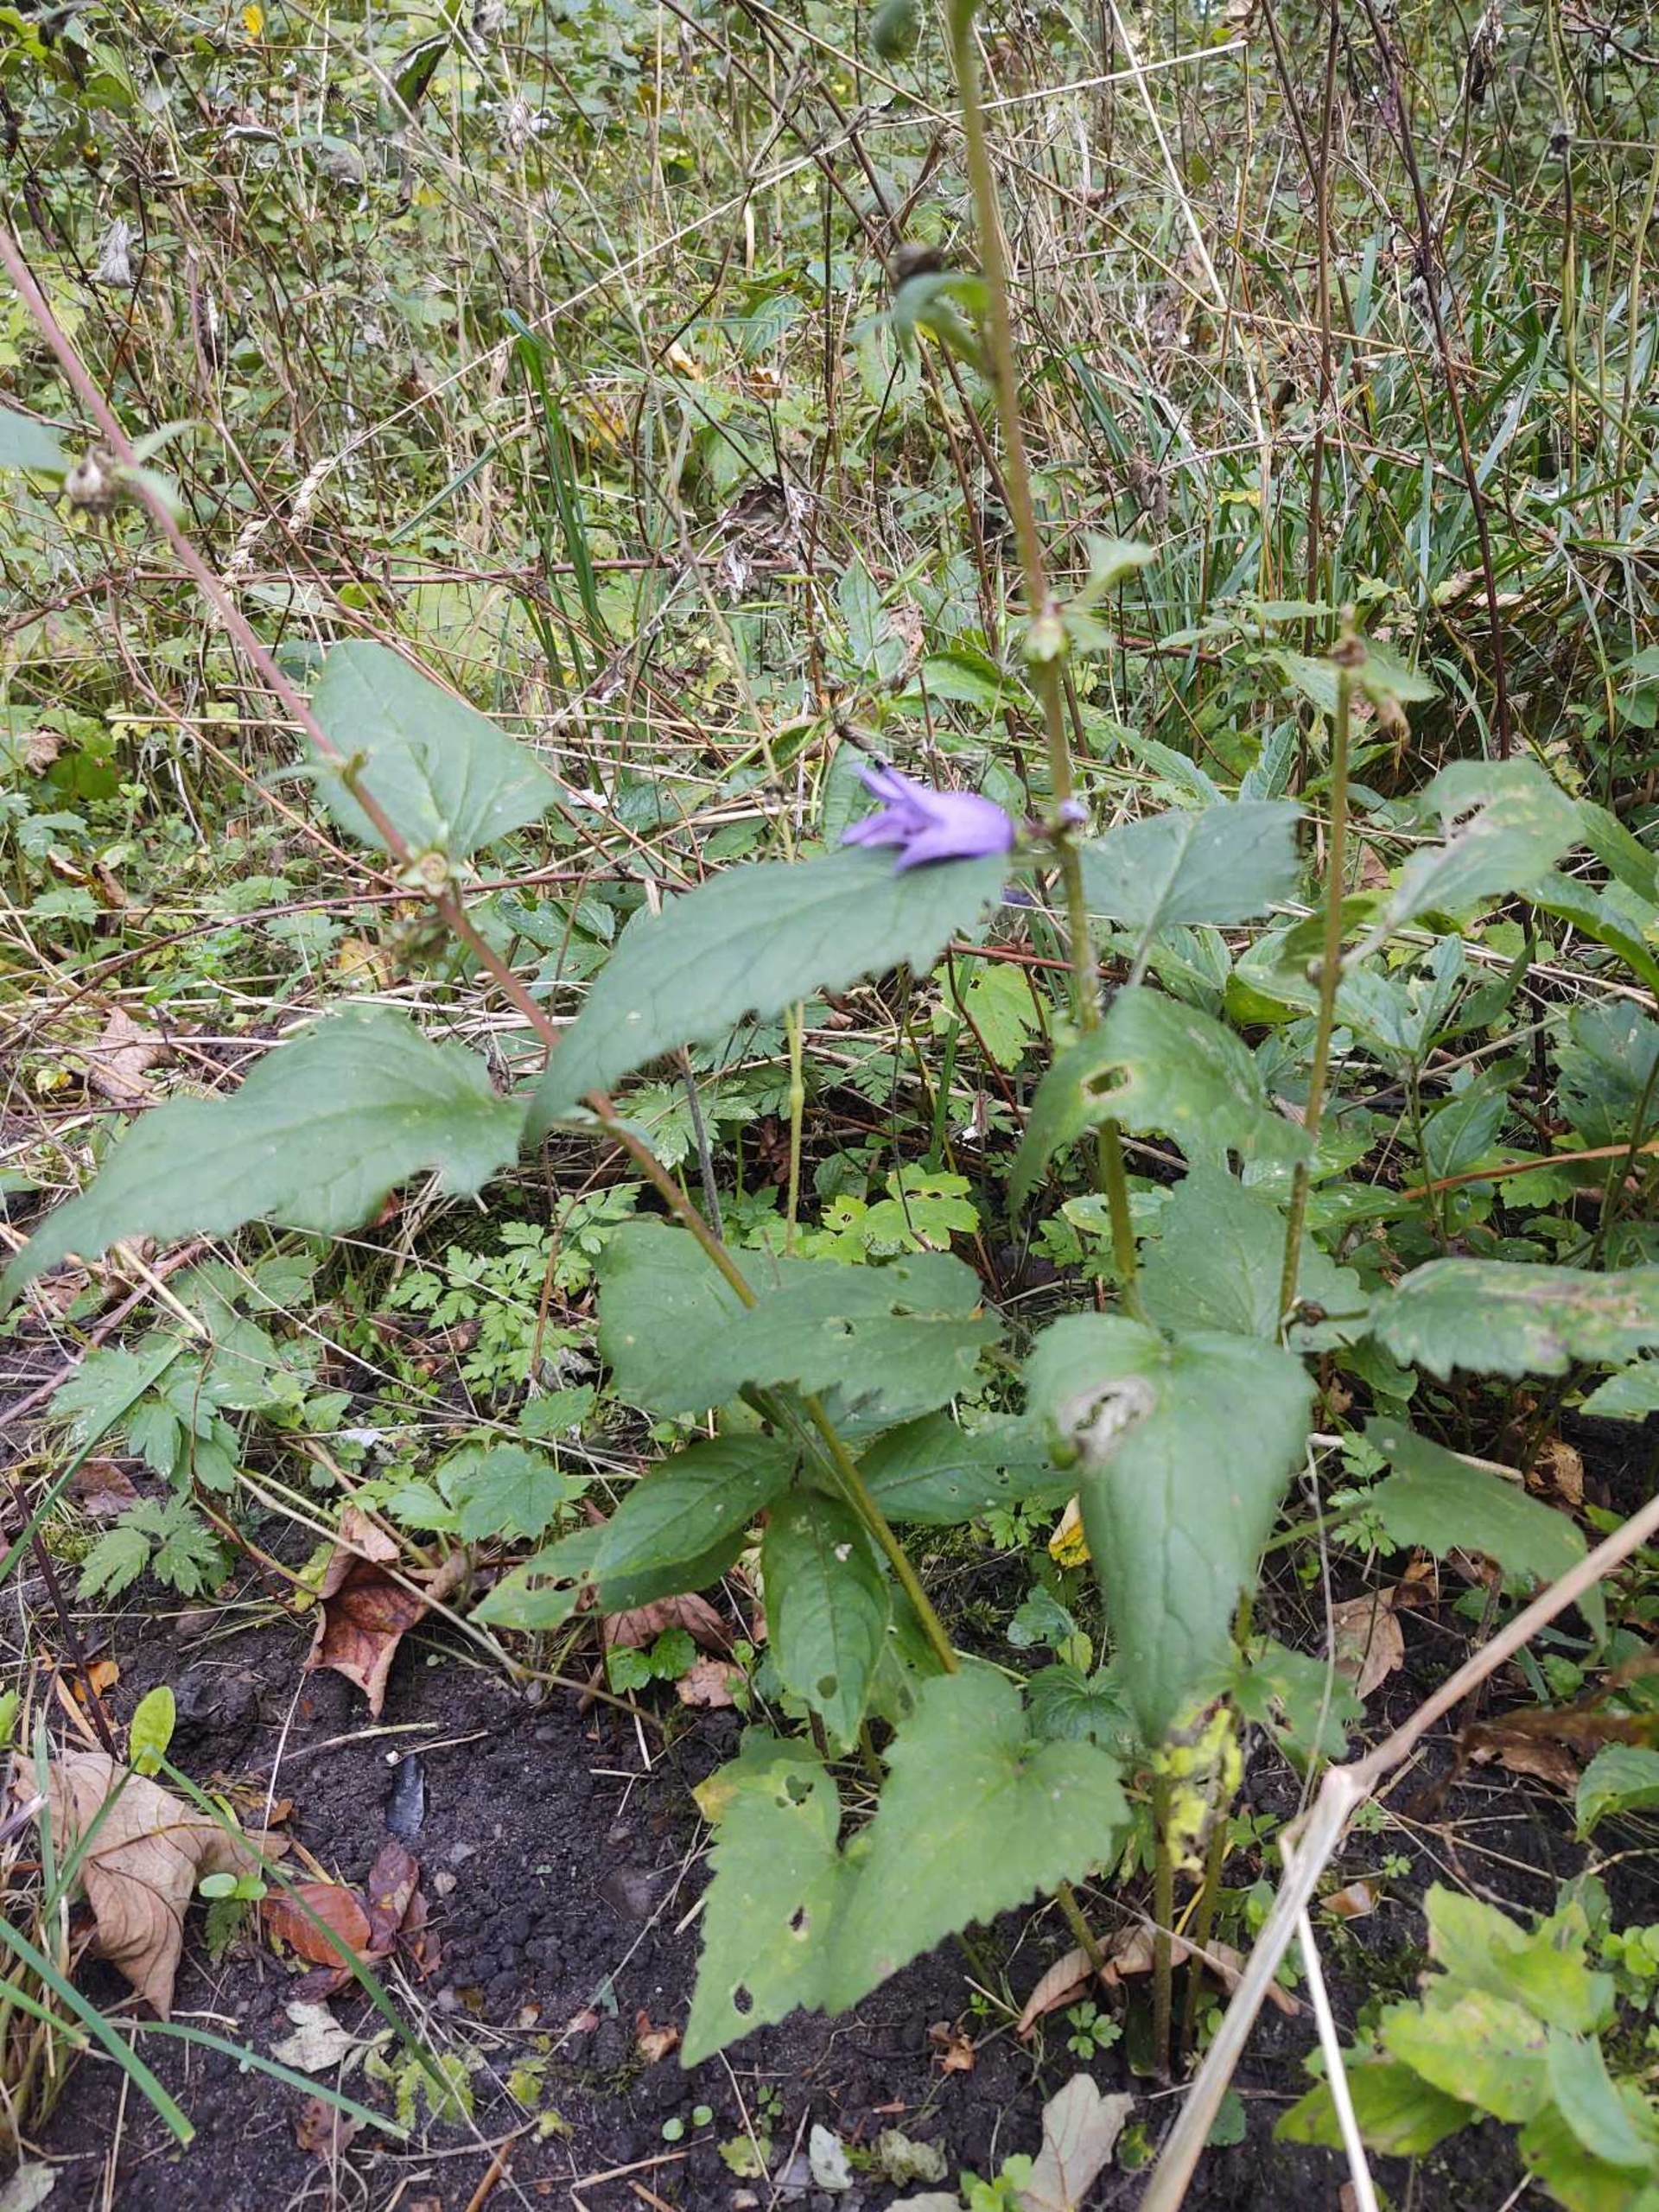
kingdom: Plantae
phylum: Tracheophyta
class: Magnoliopsida
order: Asterales
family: Campanulaceae
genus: Campanula
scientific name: Campanula trachelium
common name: Nælde-klokke
